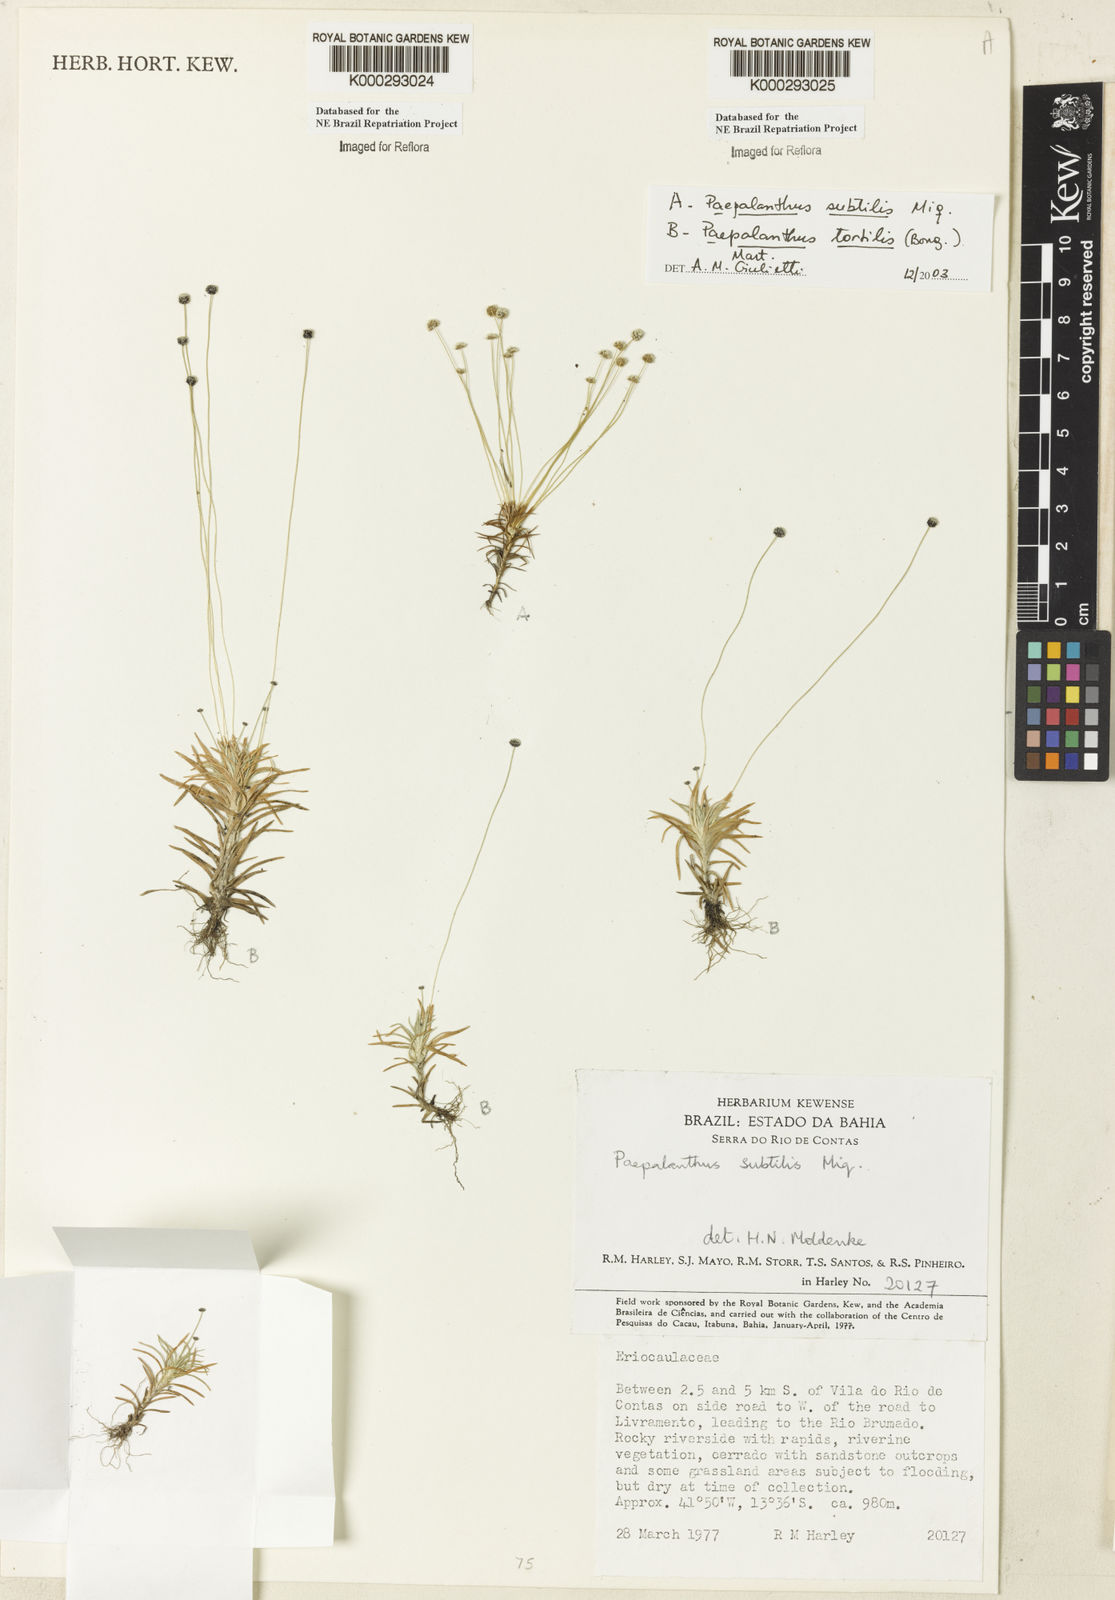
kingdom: Plantae
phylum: Tracheophyta
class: Liliopsida
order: Poales
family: Eriocaulaceae
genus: Paepalanthus
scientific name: Paepalanthus subtilis
